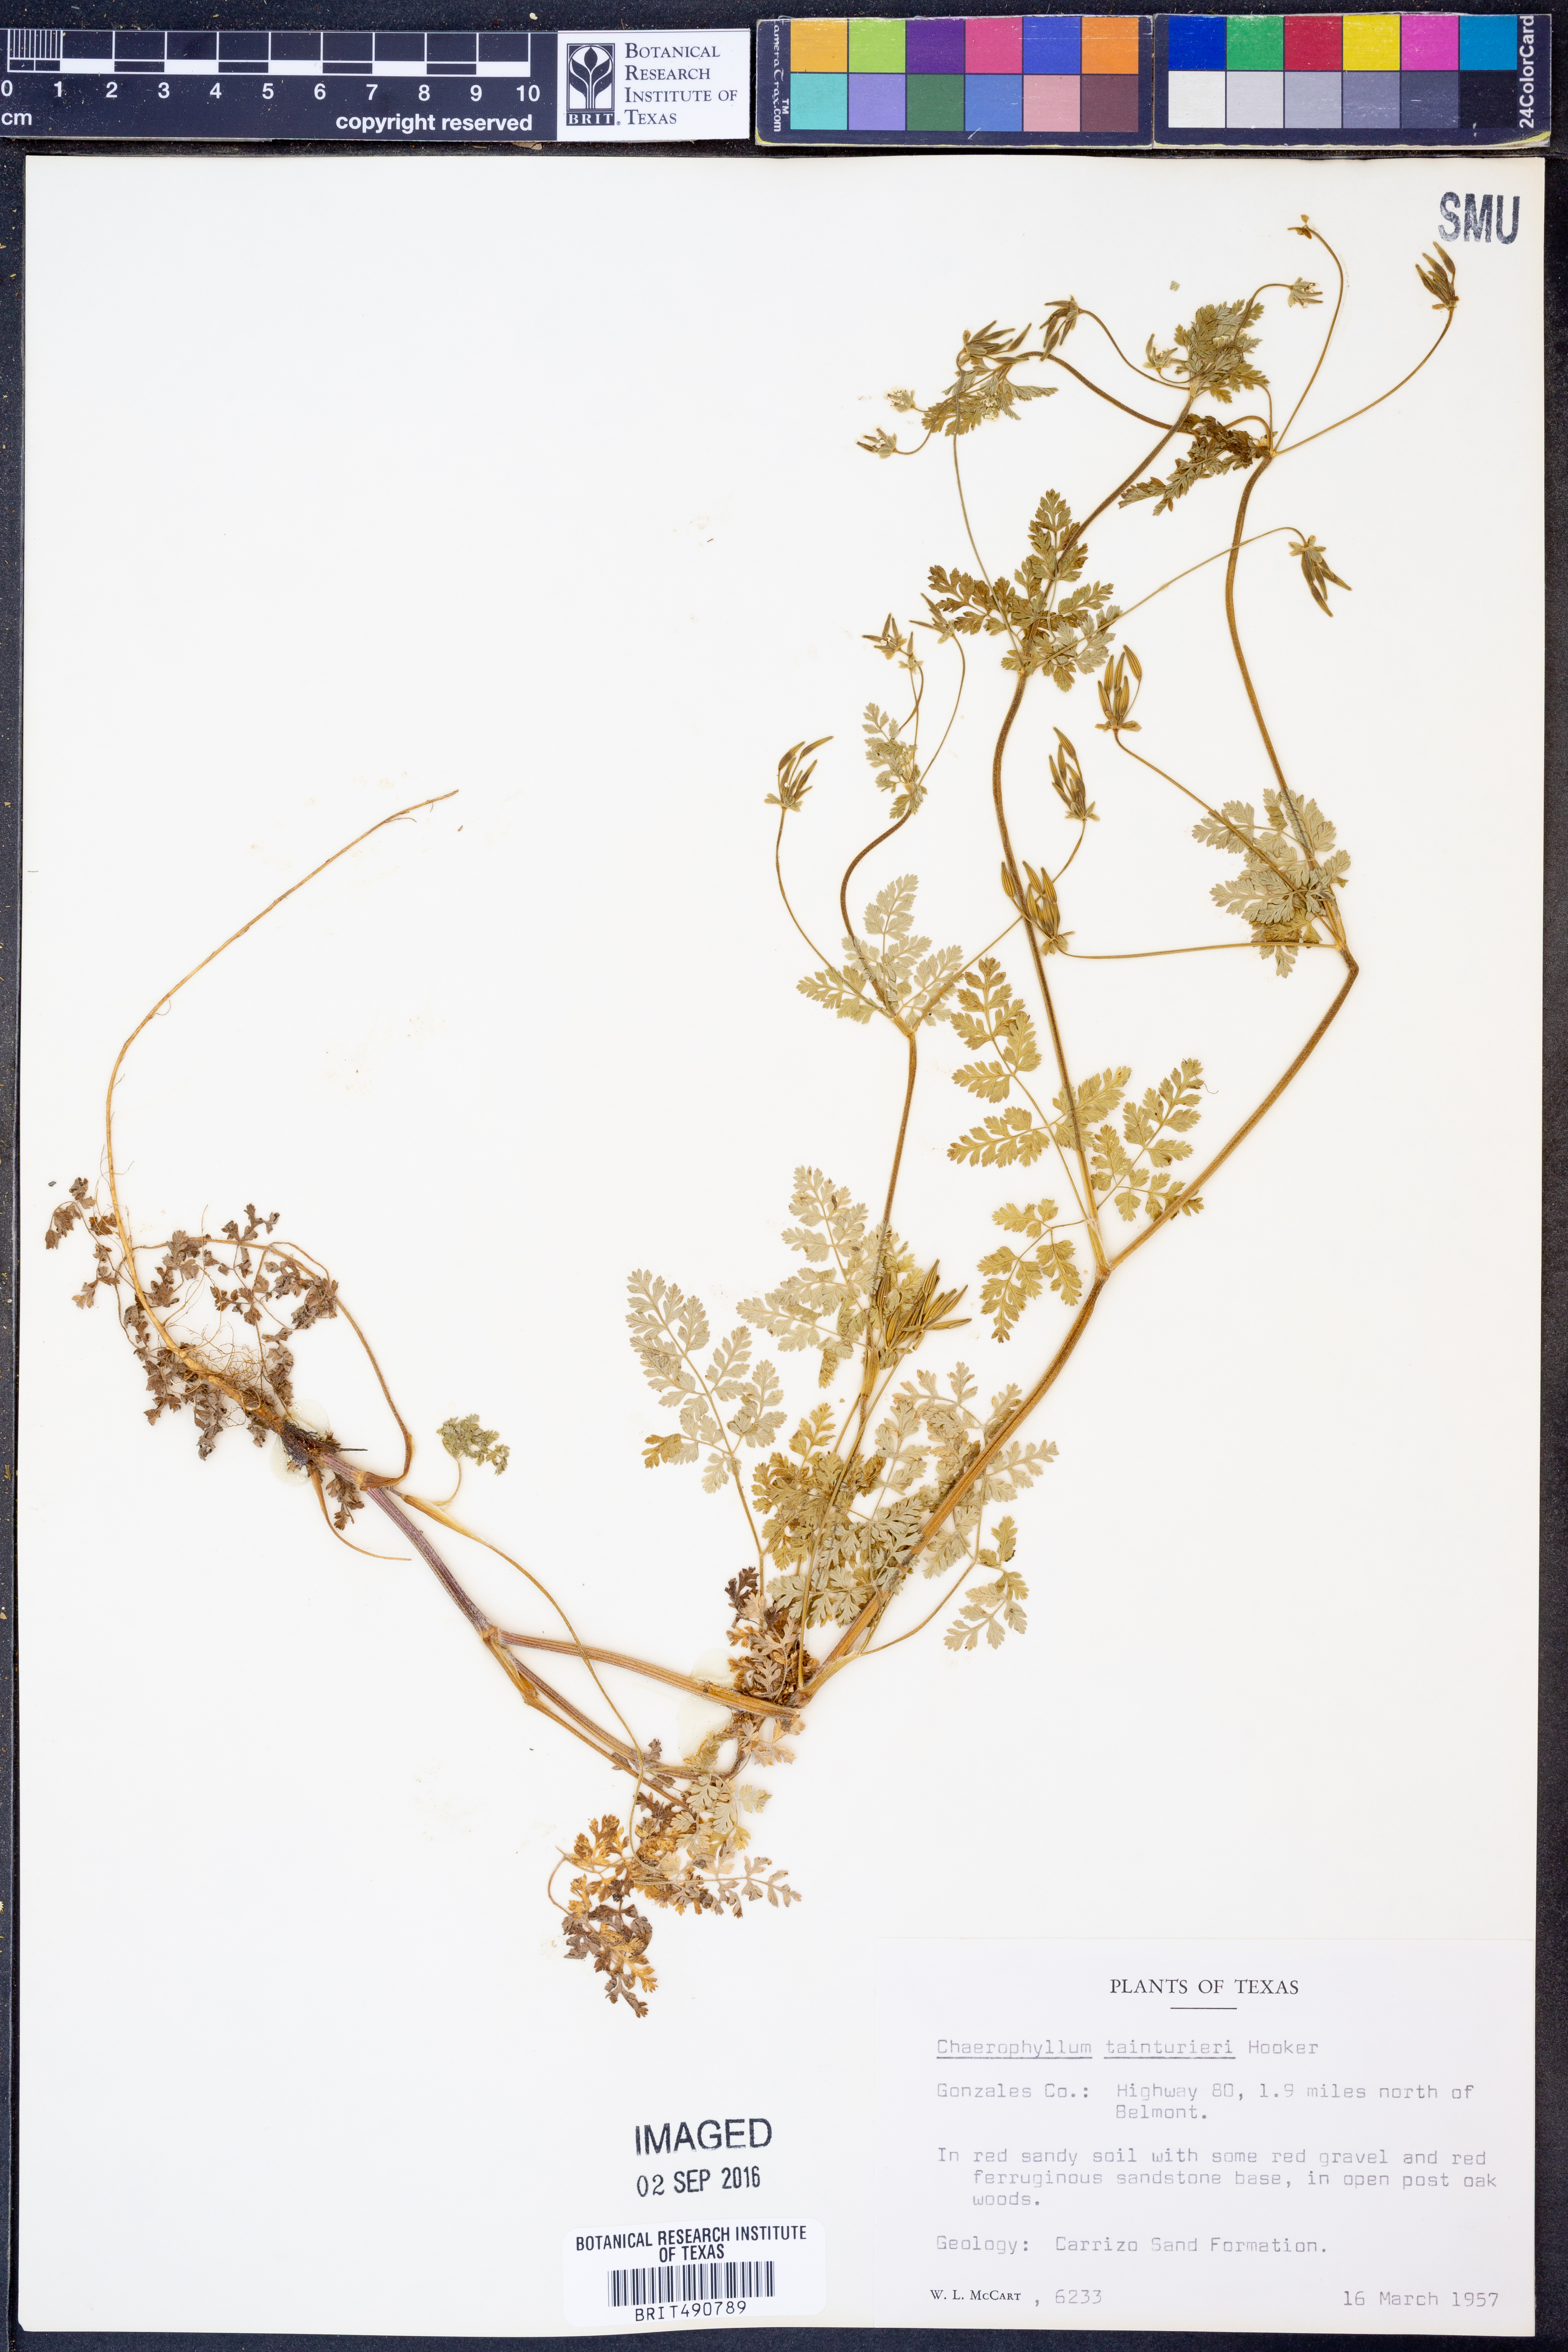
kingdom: Plantae
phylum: Tracheophyta
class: Magnoliopsida
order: Apiales
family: Apiaceae
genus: Chaerophyllum
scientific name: Chaerophyllum tainturieri
